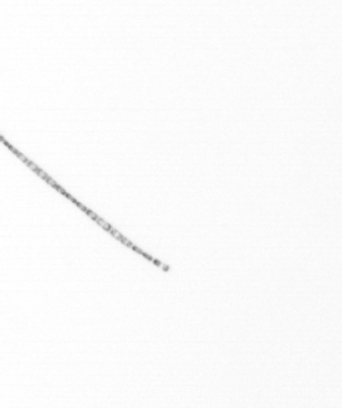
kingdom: Chromista
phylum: Ochrophyta
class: Bacillariophyceae
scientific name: Bacillariophyceae
